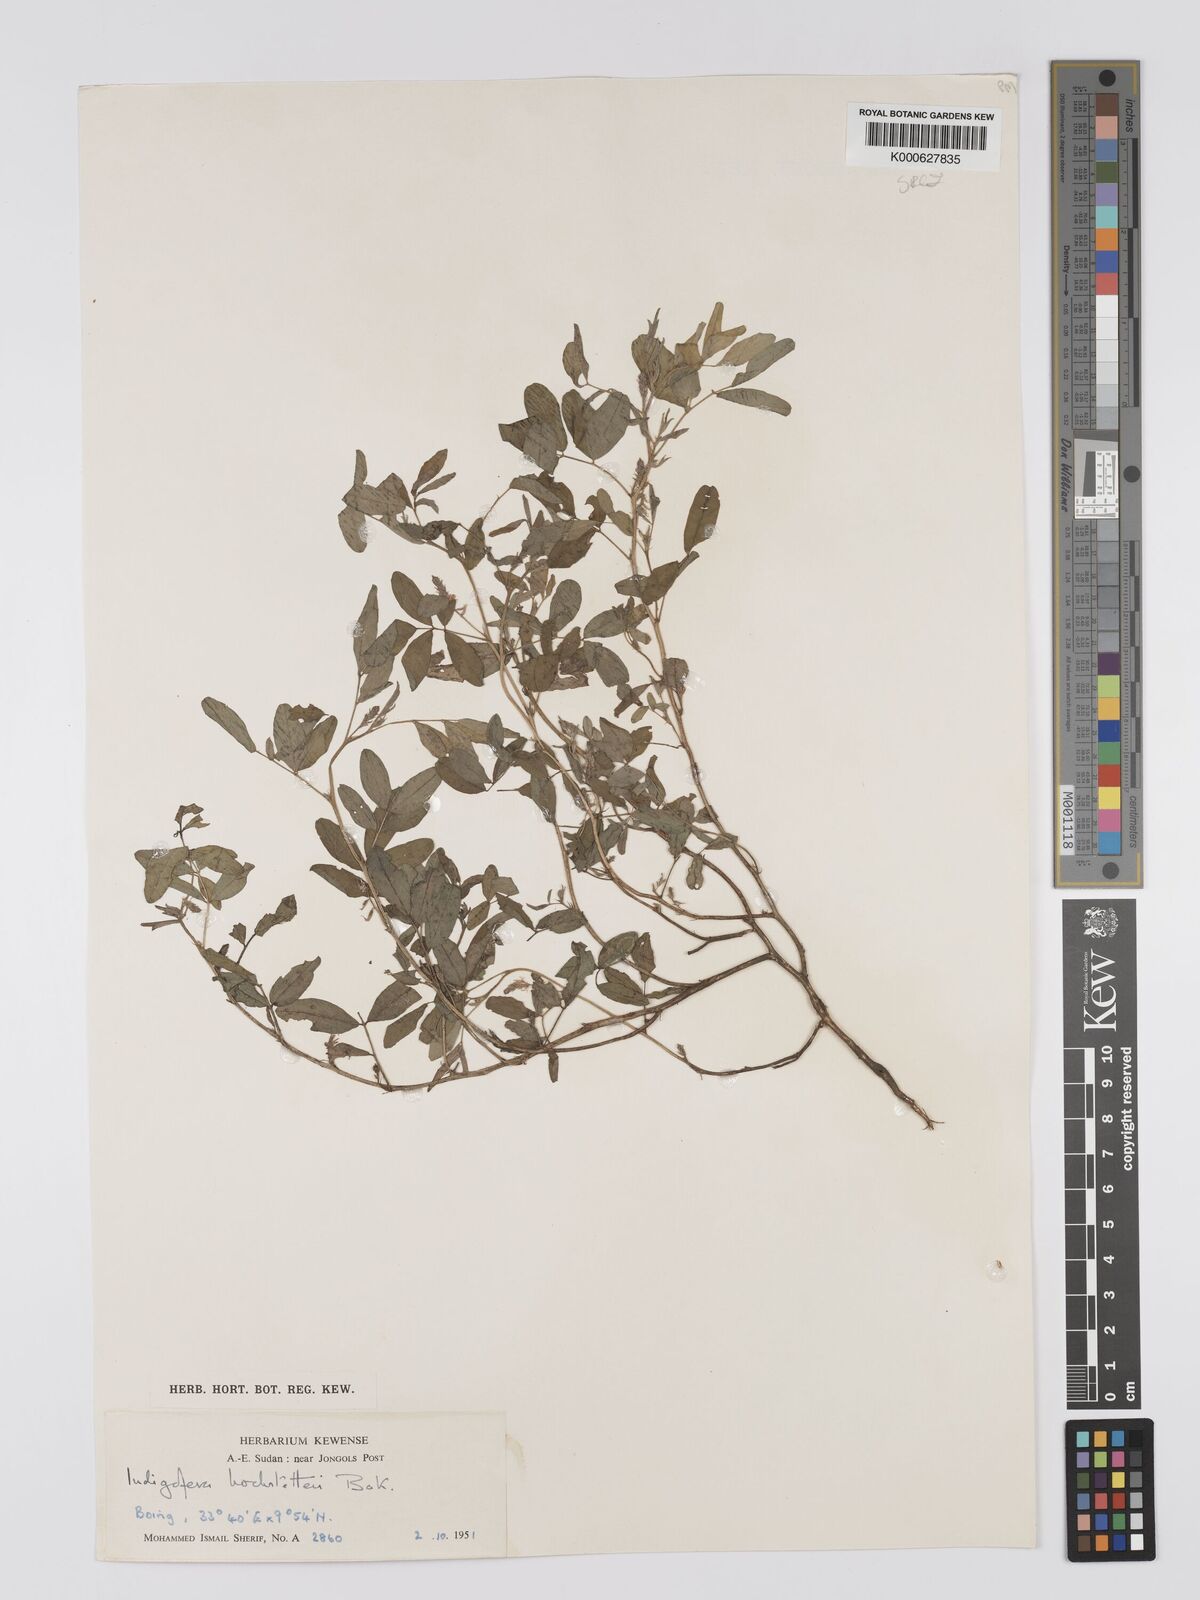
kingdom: Plantae
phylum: Tracheophyta
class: Magnoliopsida
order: Fabales
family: Fabaceae
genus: Indigofera
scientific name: Indigofera hochstetteri
